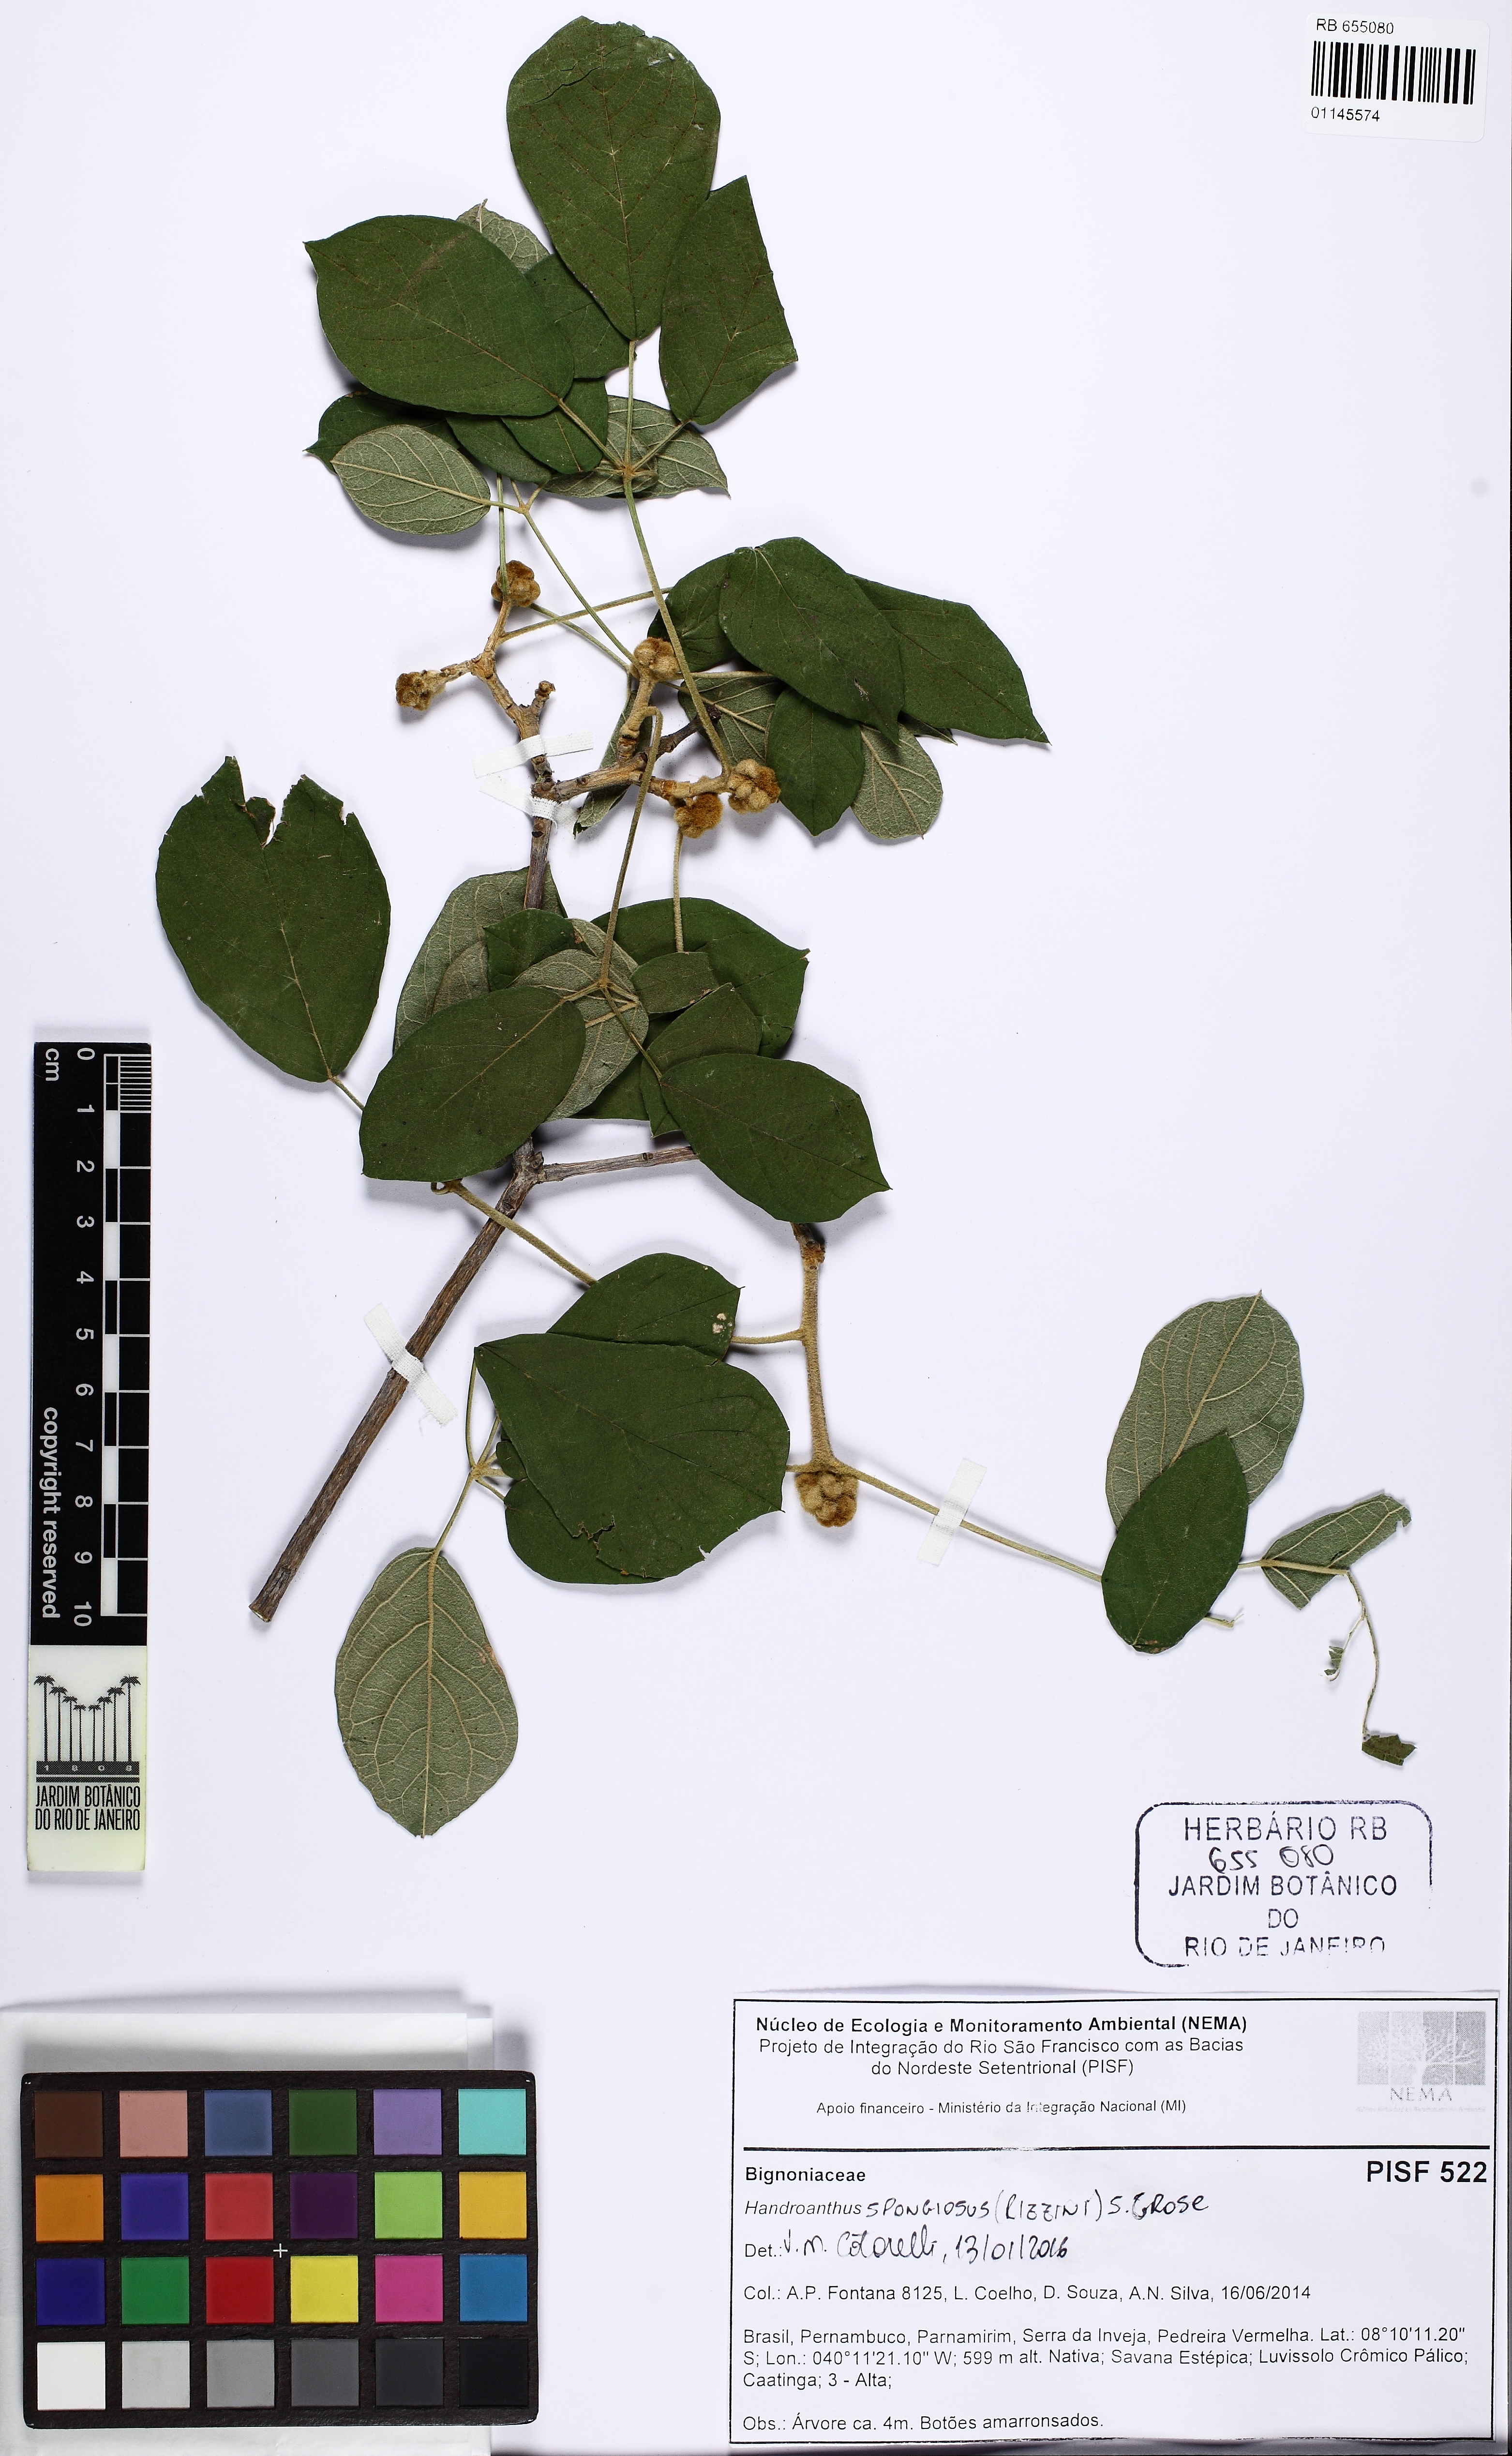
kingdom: Plantae
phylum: Tracheophyta
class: Magnoliopsida
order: Lamiales
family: Bignoniaceae
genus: Handroanthus
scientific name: Handroanthus spongiosus
